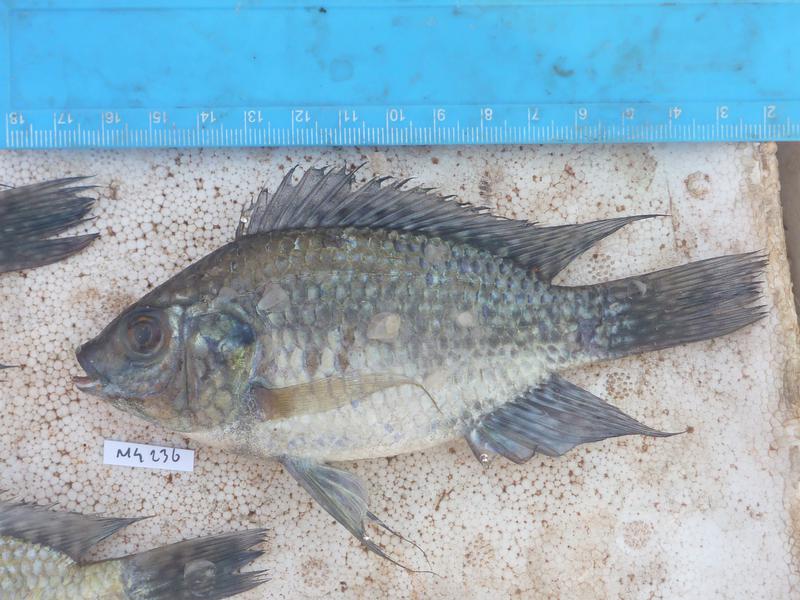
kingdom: Animalia
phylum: Chordata
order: Perciformes
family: Cichlidae
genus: Oreochromis
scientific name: Oreochromis leucostictus
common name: Blue spotted tilapia
